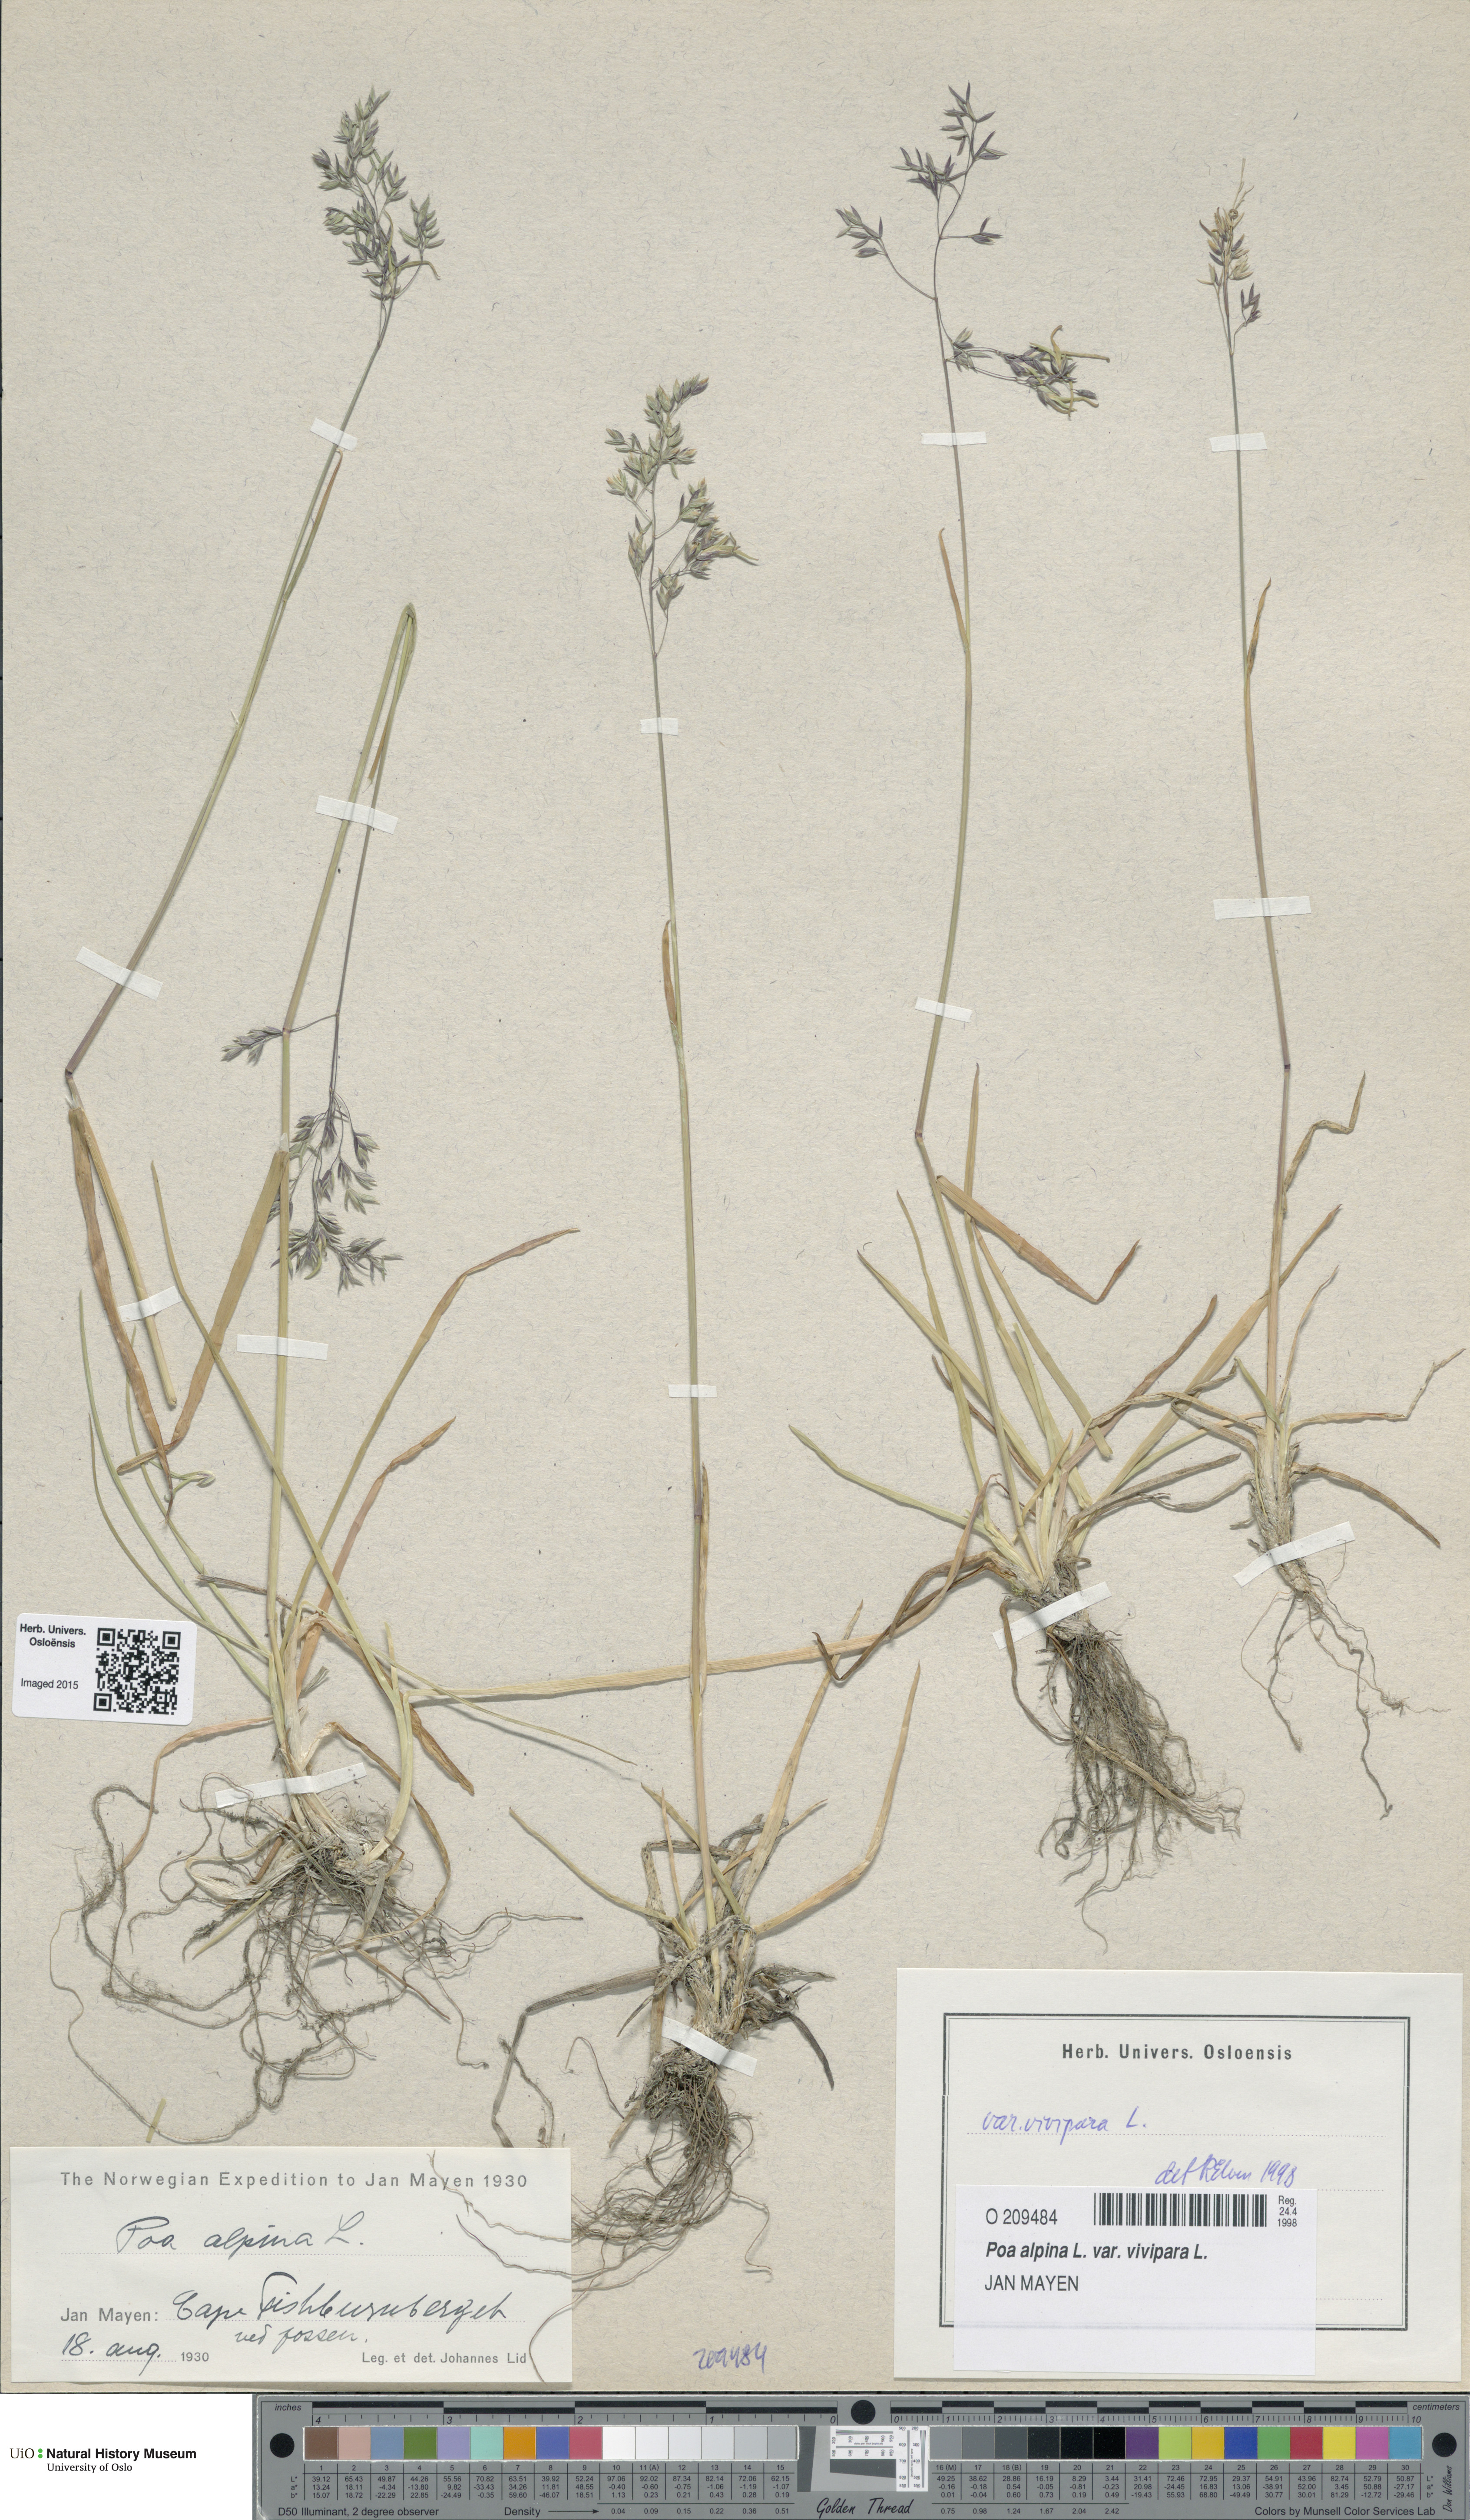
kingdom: Plantae
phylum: Tracheophyta
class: Liliopsida
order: Poales
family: Poaceae
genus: Poa
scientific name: Poa alpina
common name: Alpine bluegrass
